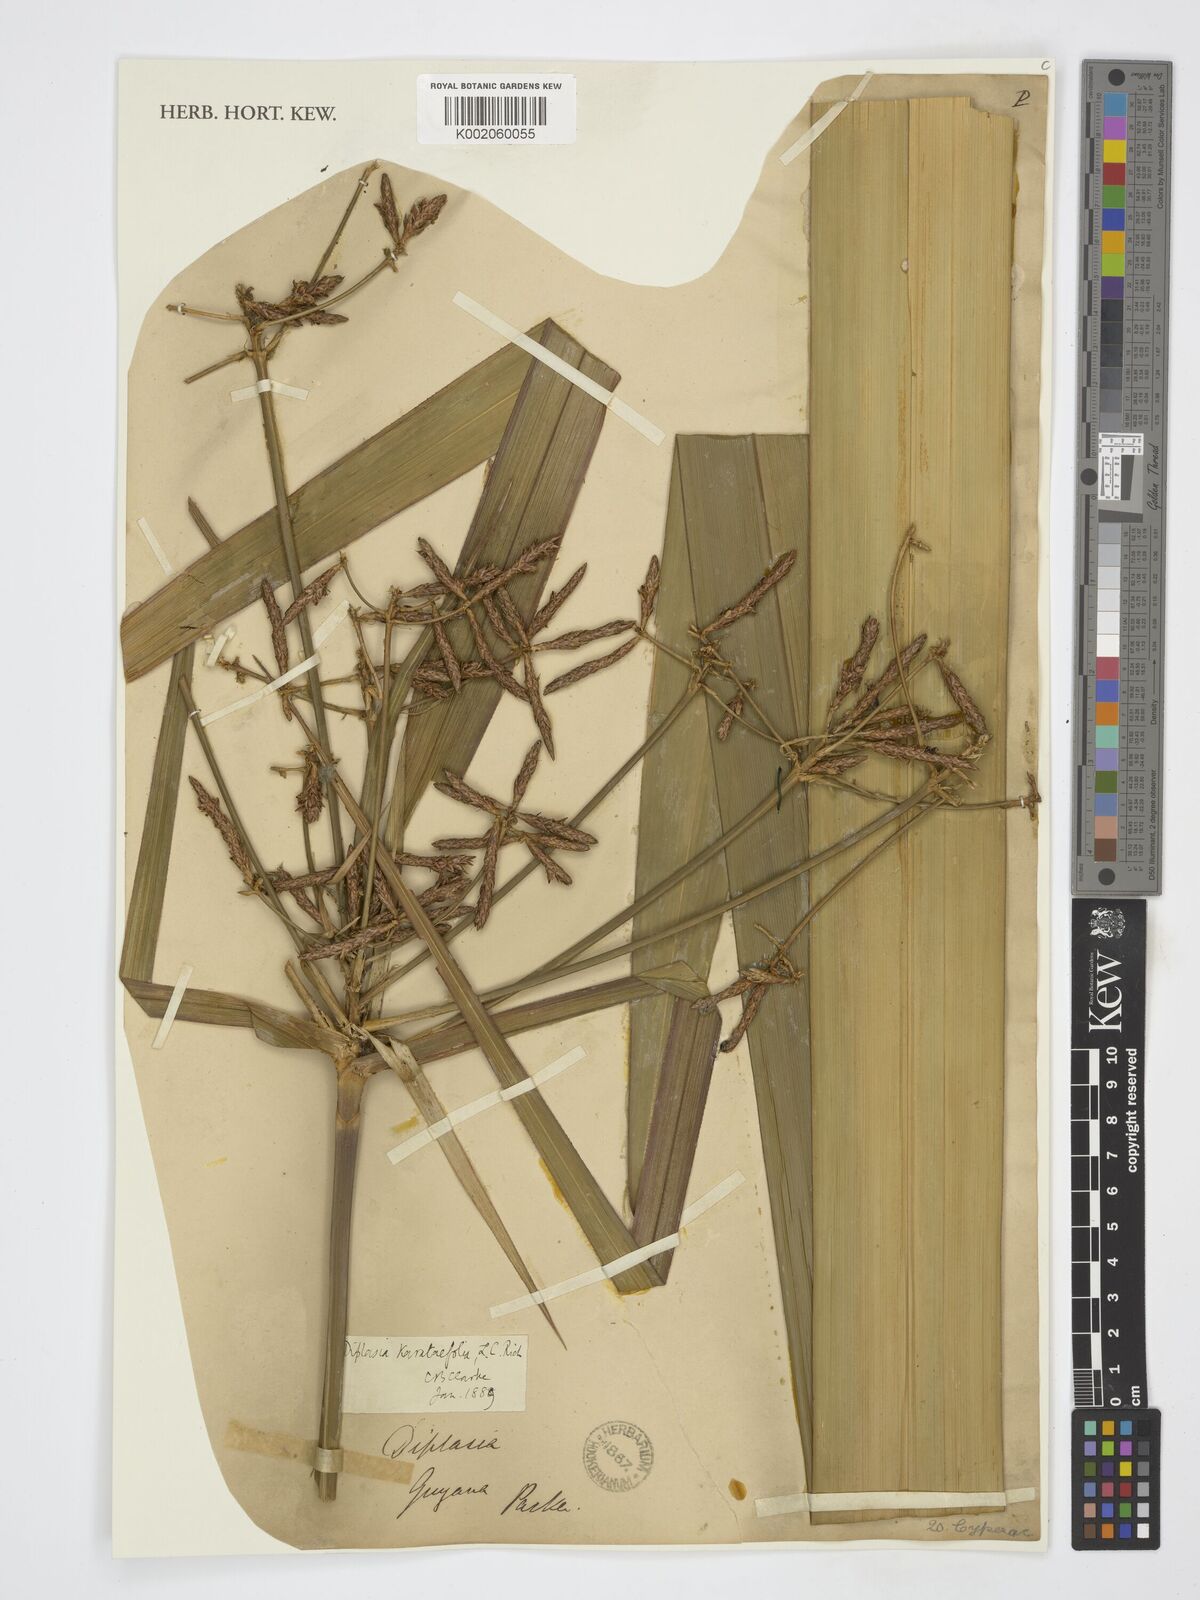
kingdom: Plantae
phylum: Tracheophyta
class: Liliopsida
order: Poales
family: Cyperaceae
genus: Diplasia
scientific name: Diplasia karatifolia
